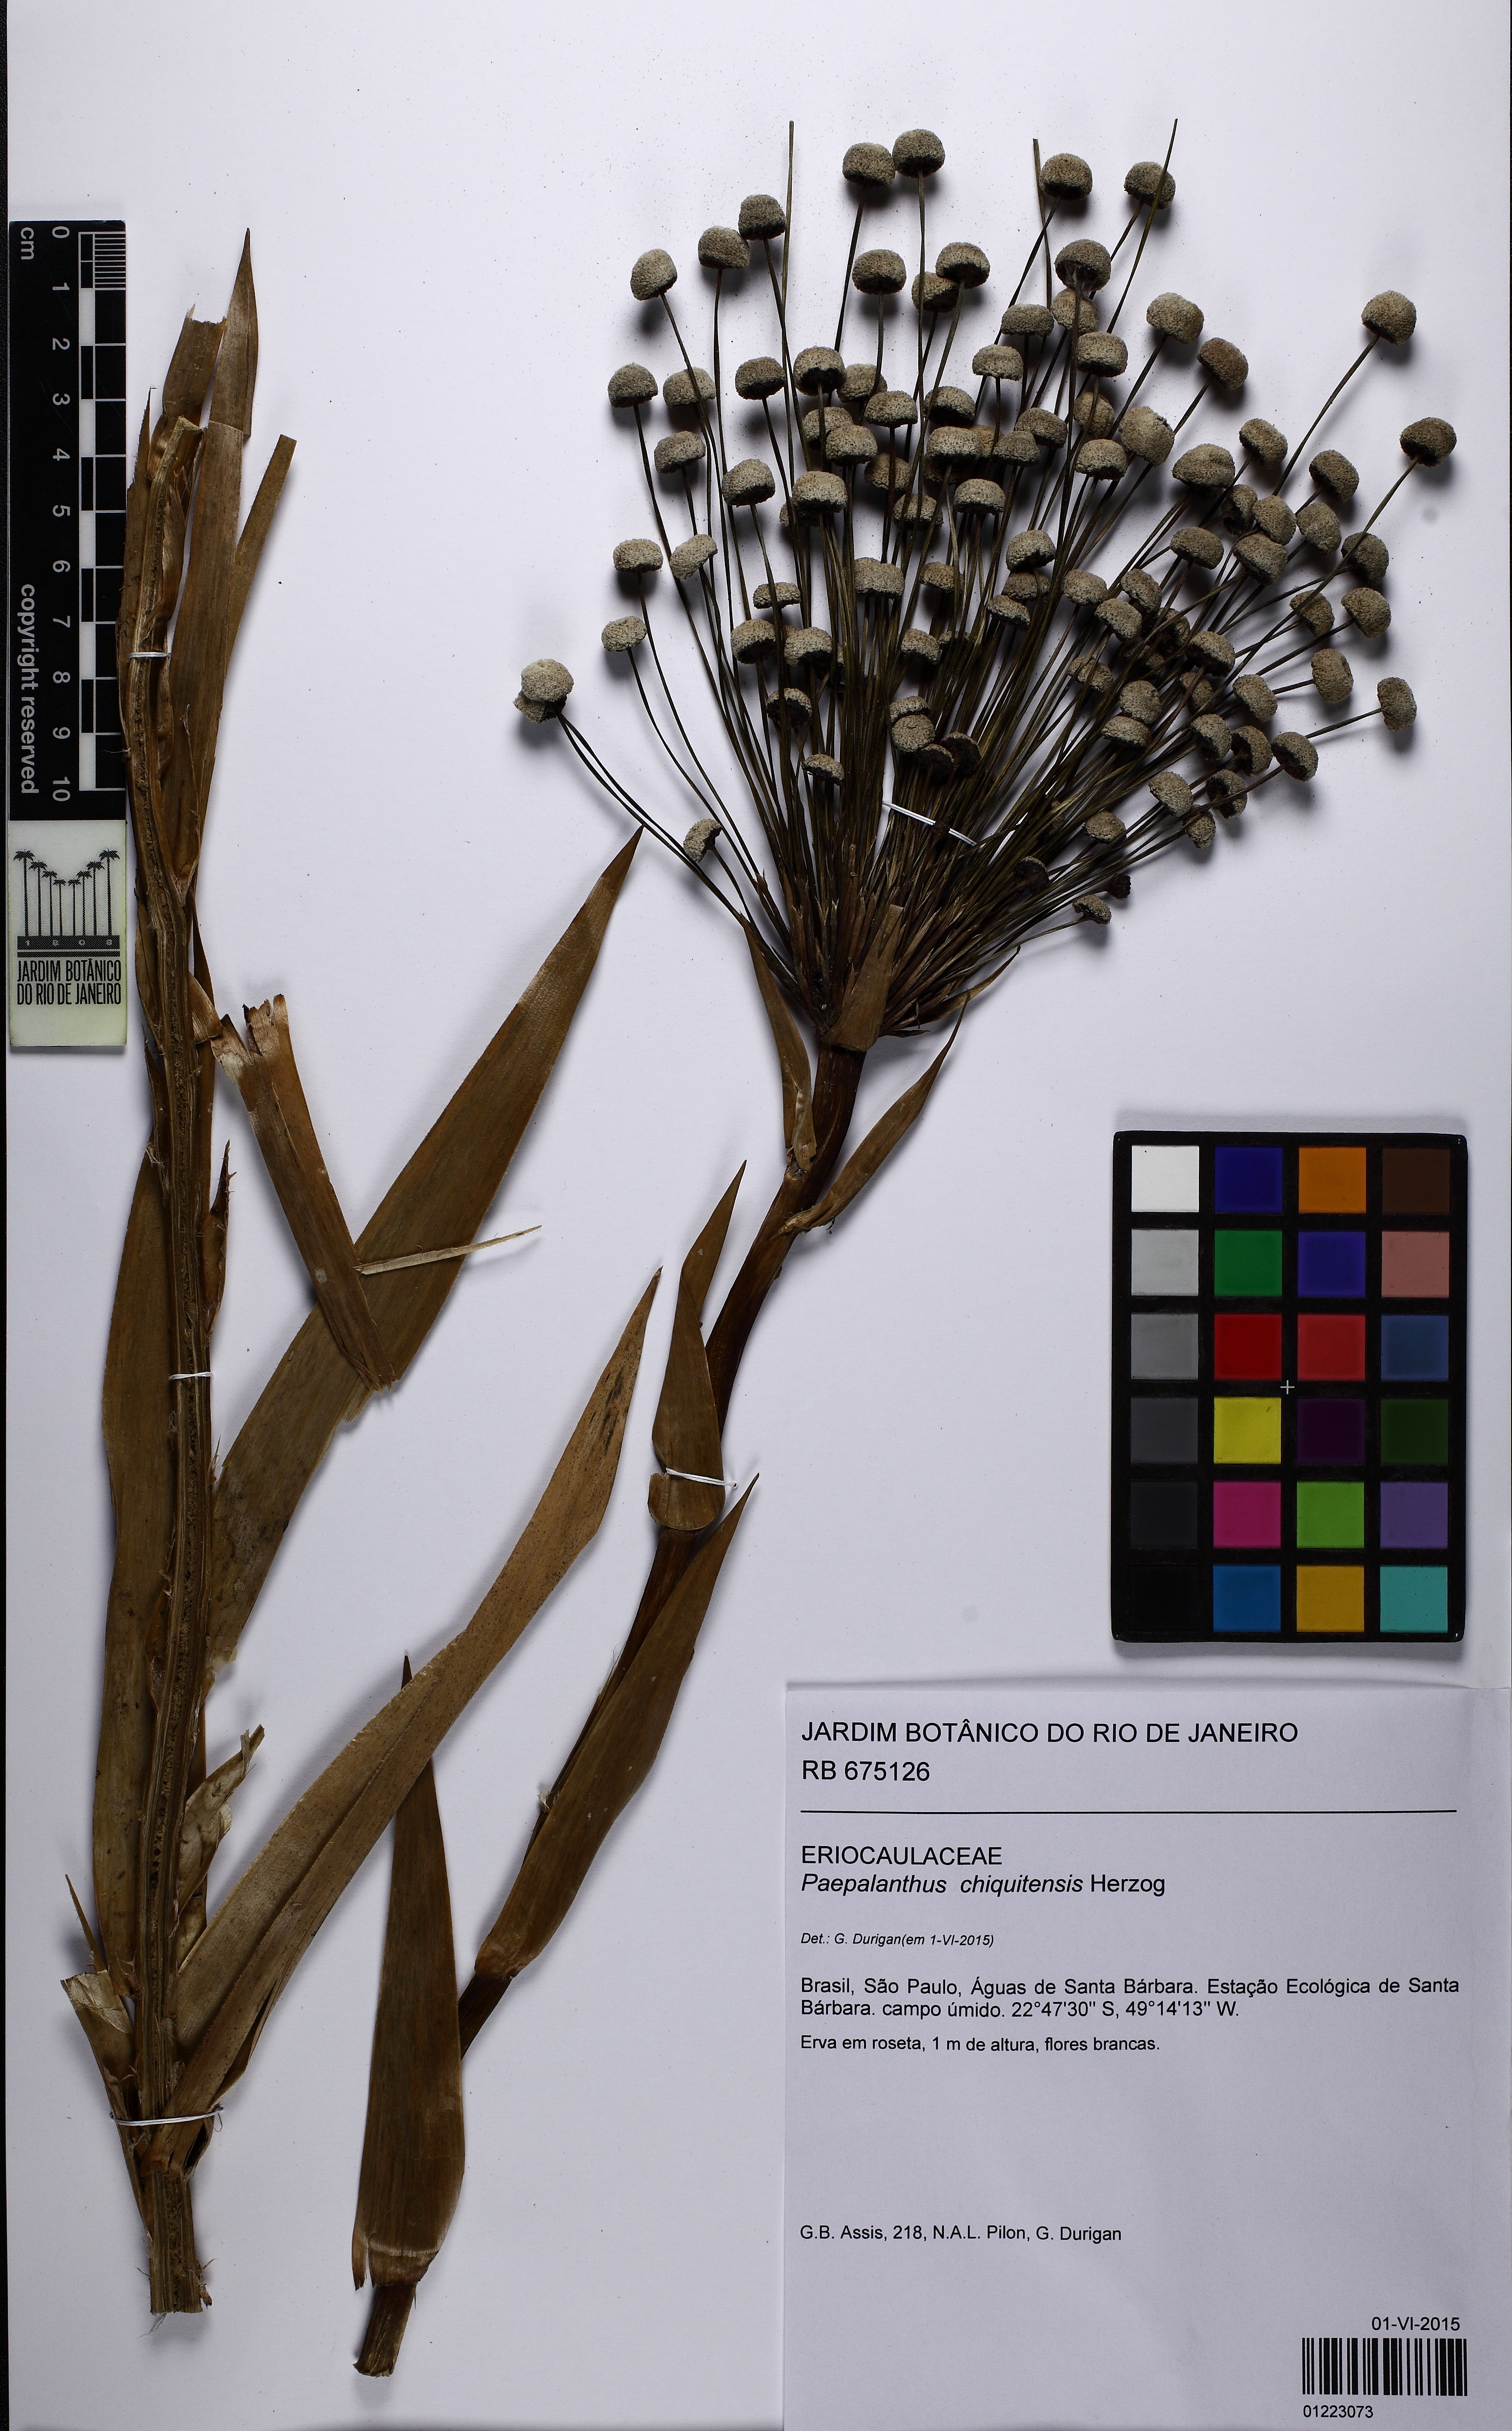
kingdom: Plantae
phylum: Tracheophyta
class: Liliopsida
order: Poales
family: Eriocaulaceae
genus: Paepalanthus
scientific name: Paepalanthus chiquitensis
